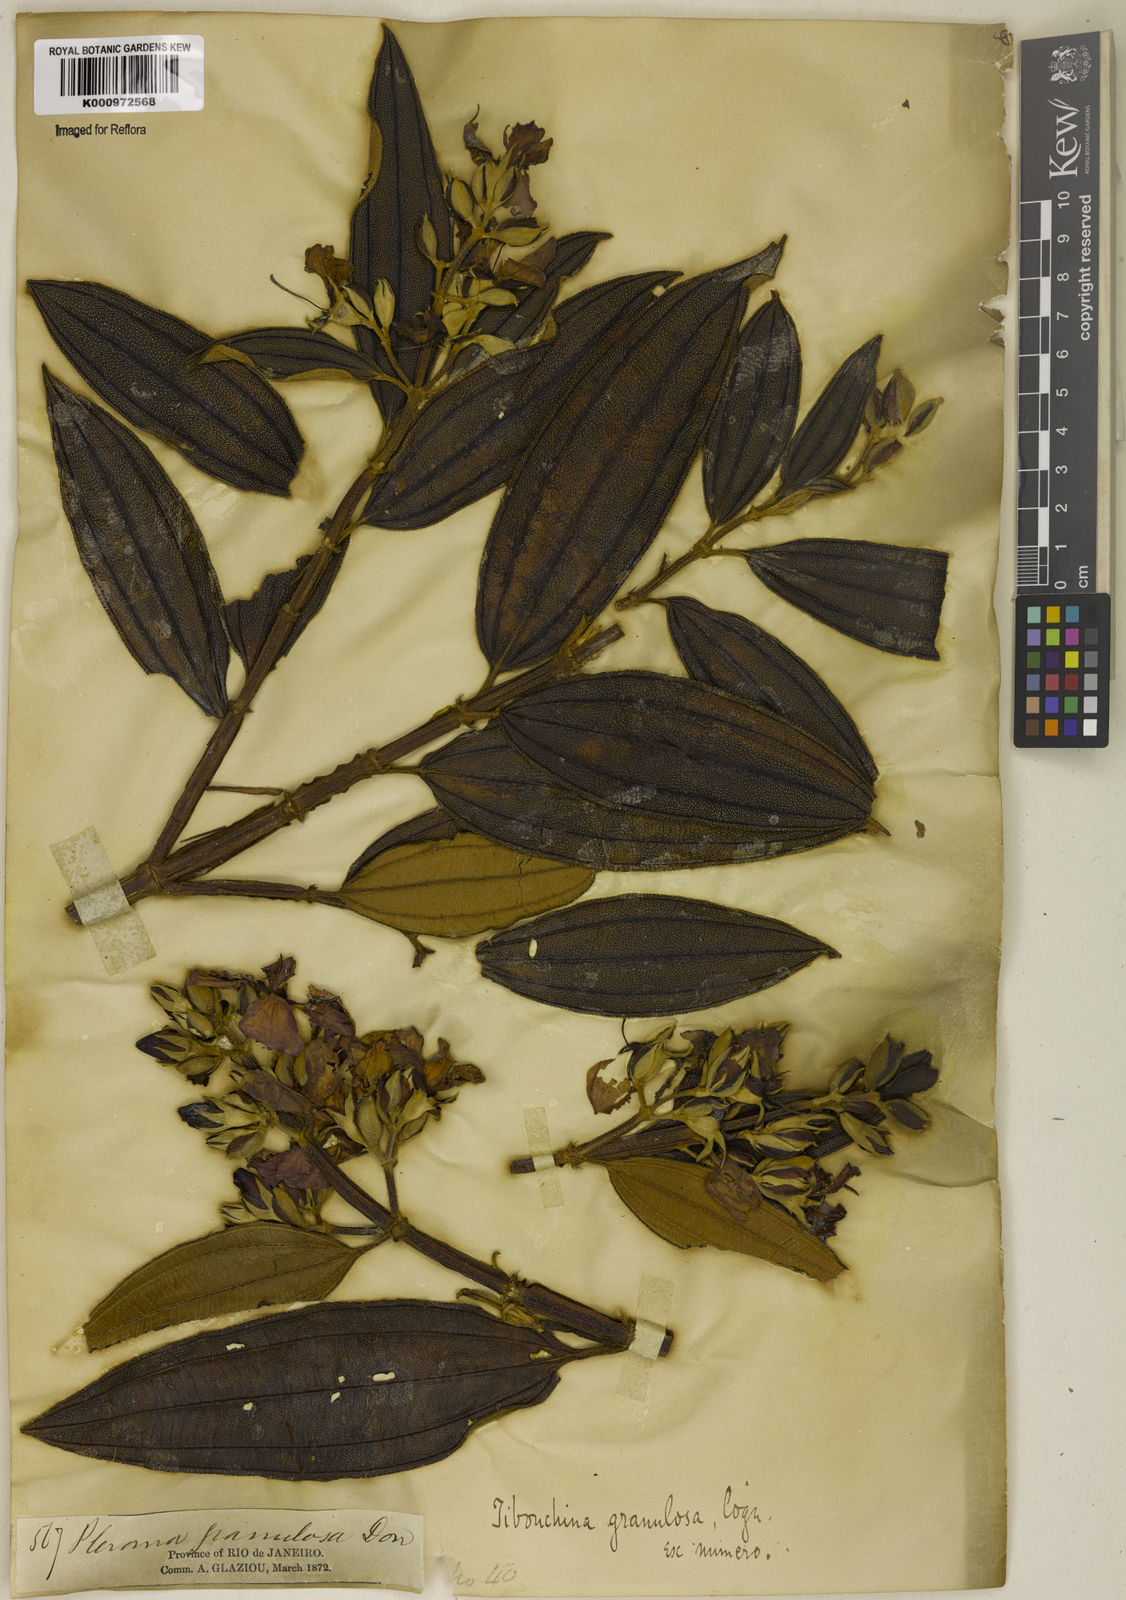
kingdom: Plantae
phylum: Tracheophyta
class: Magnoliopsida
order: Myrtales
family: Melastomataceae
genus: Pleroma
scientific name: Pleroma granulosum
